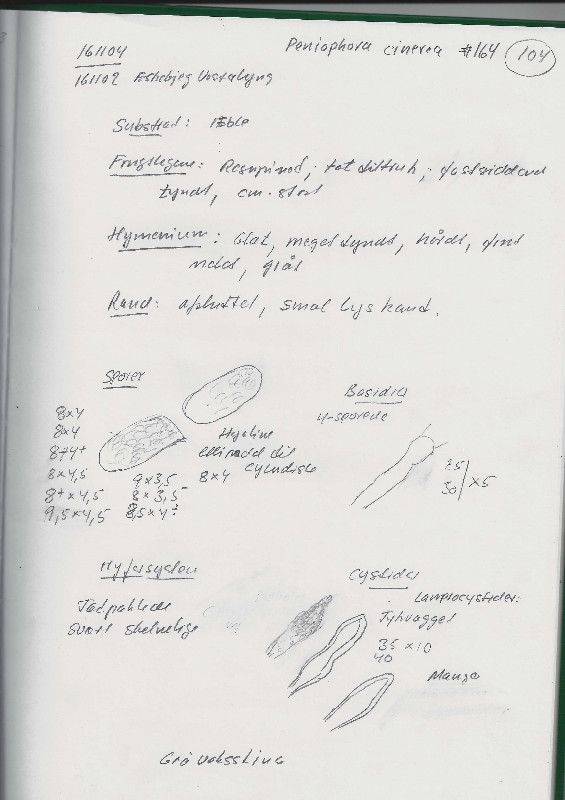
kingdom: Fungi
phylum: Basidiomycota
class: Agaricomycetes
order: Russulales
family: Peniophoraceae
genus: Peniophora
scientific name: Peniophora cinerea
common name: grå voksskind
